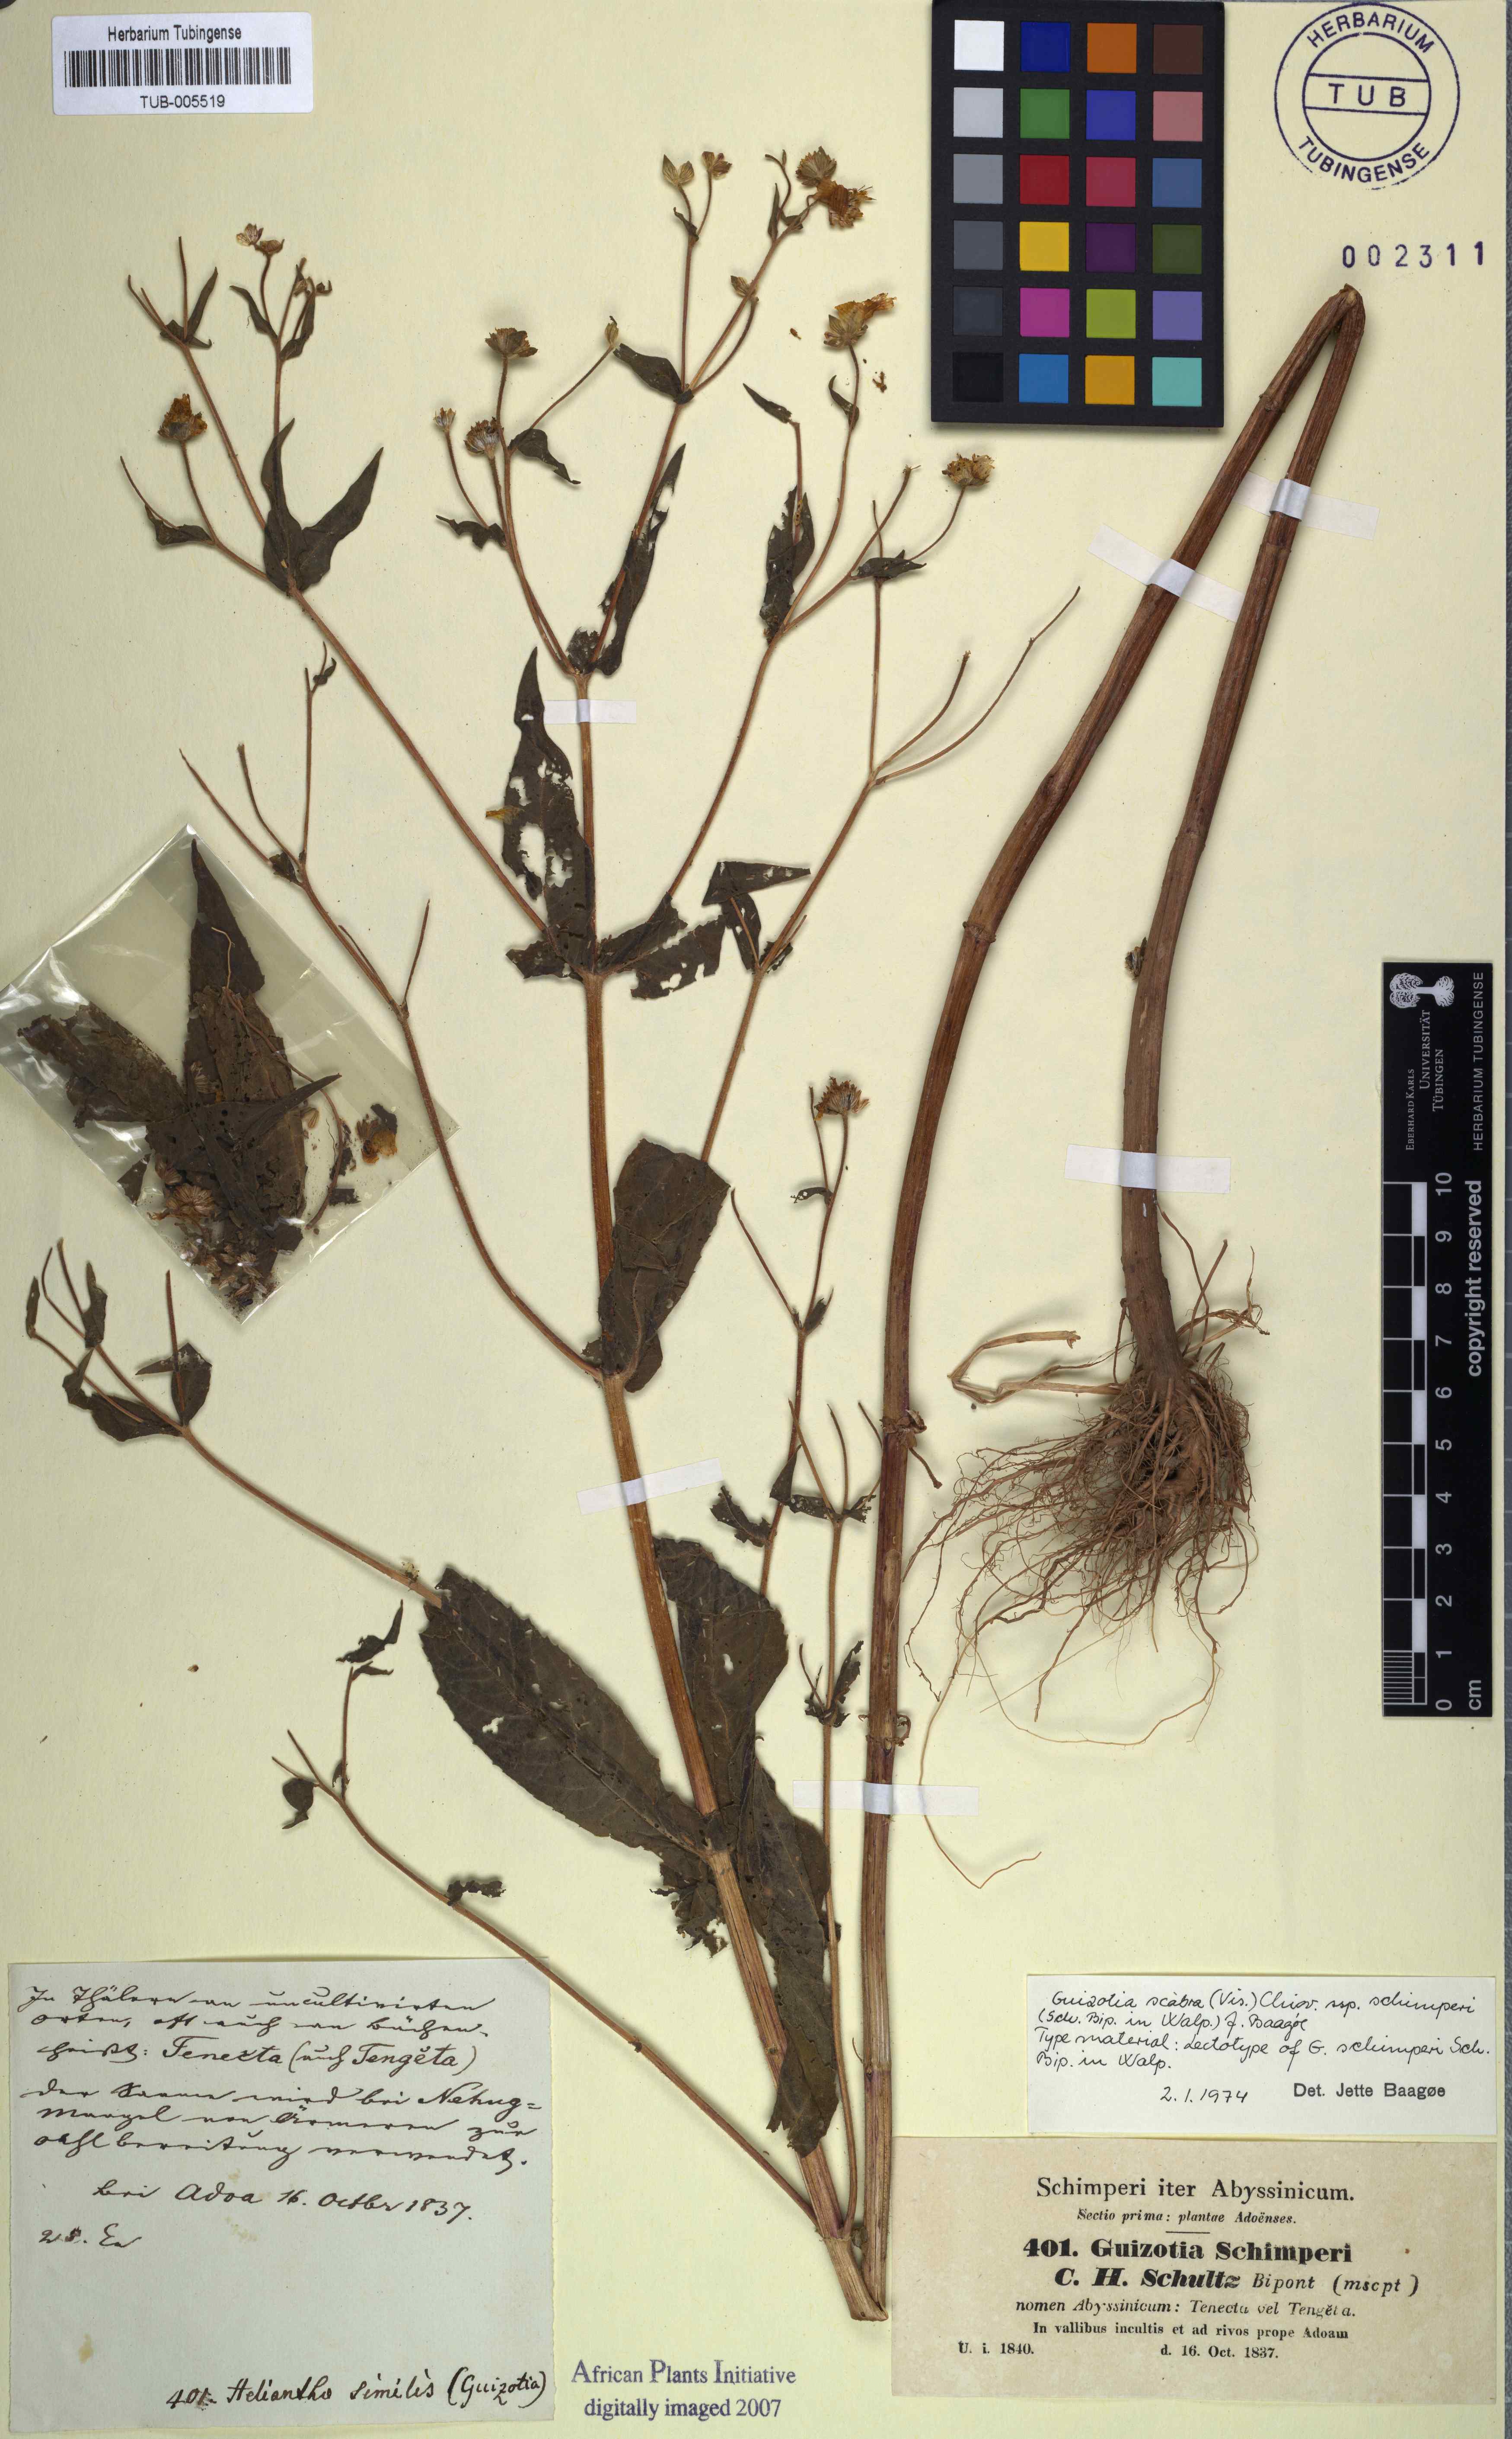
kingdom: Plantae
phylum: Tracheophyta
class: Magnoliopsida
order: Asterales
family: Asteraceae
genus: Guizotia
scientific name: Guizotia scabra
